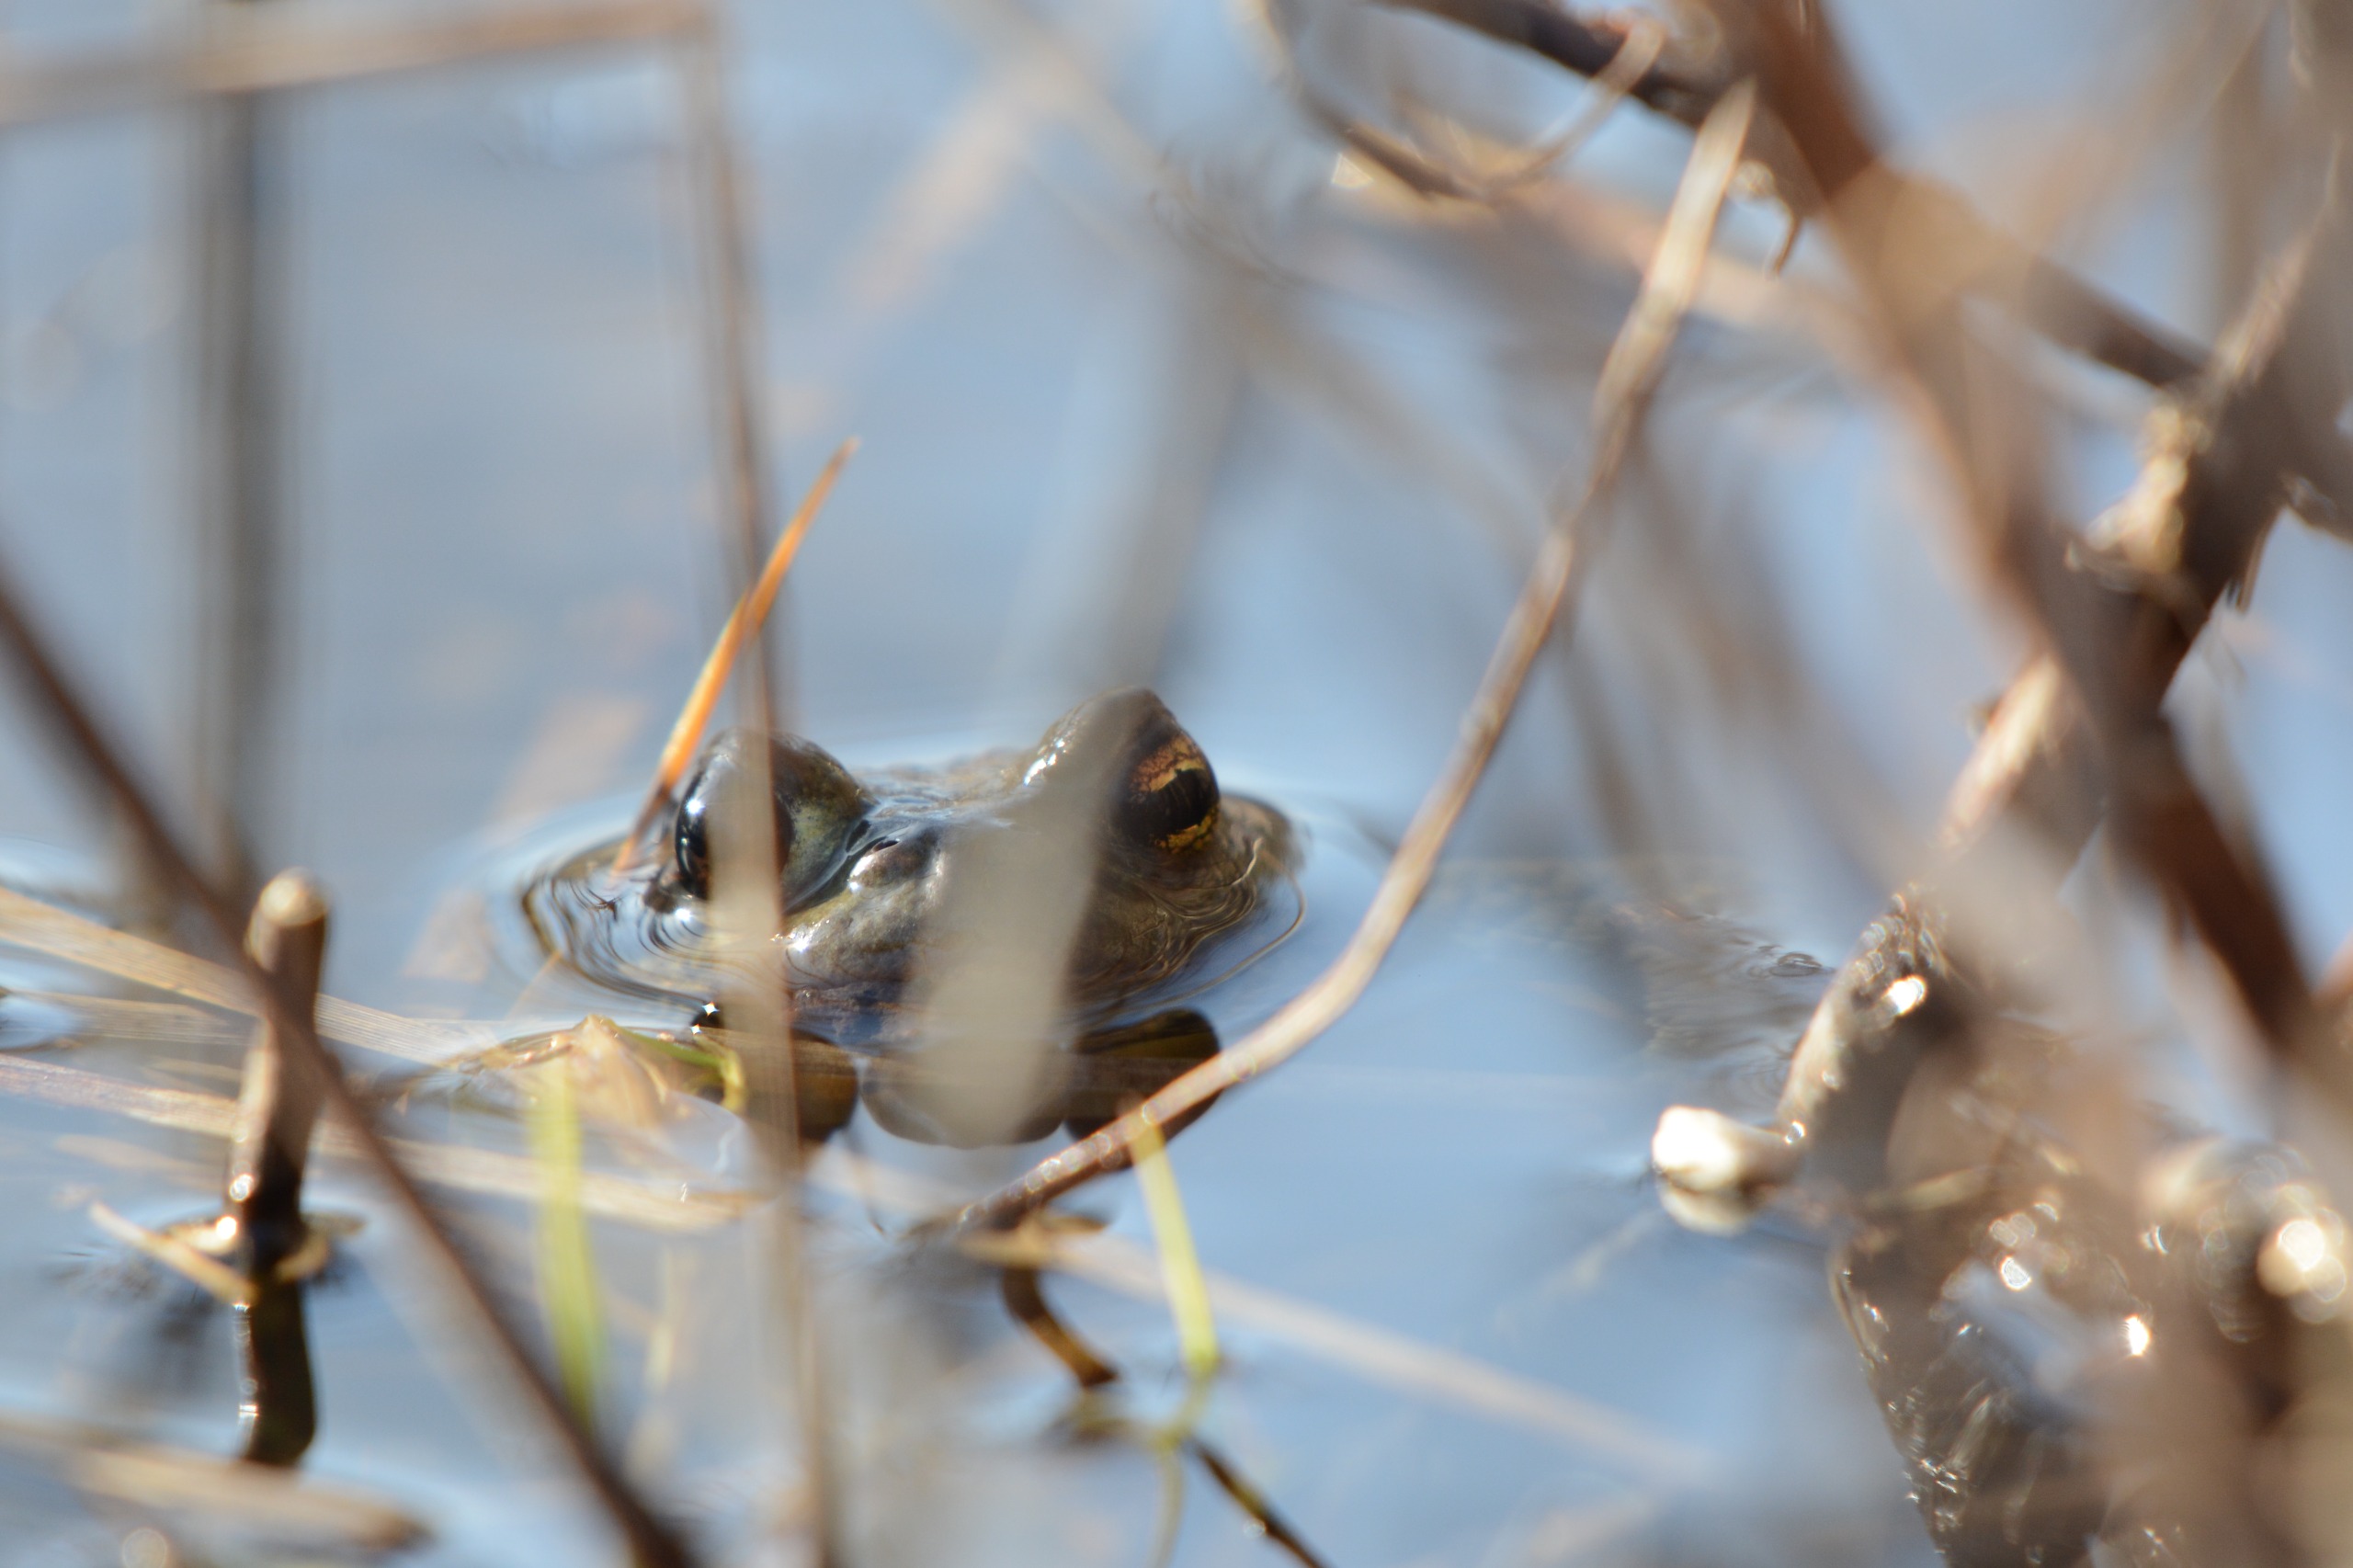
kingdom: Animalia
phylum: Chordata
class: Amphibia
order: Anura
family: Bufonidae
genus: Bufo
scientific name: Bufo bufo
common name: Skrubtudse
